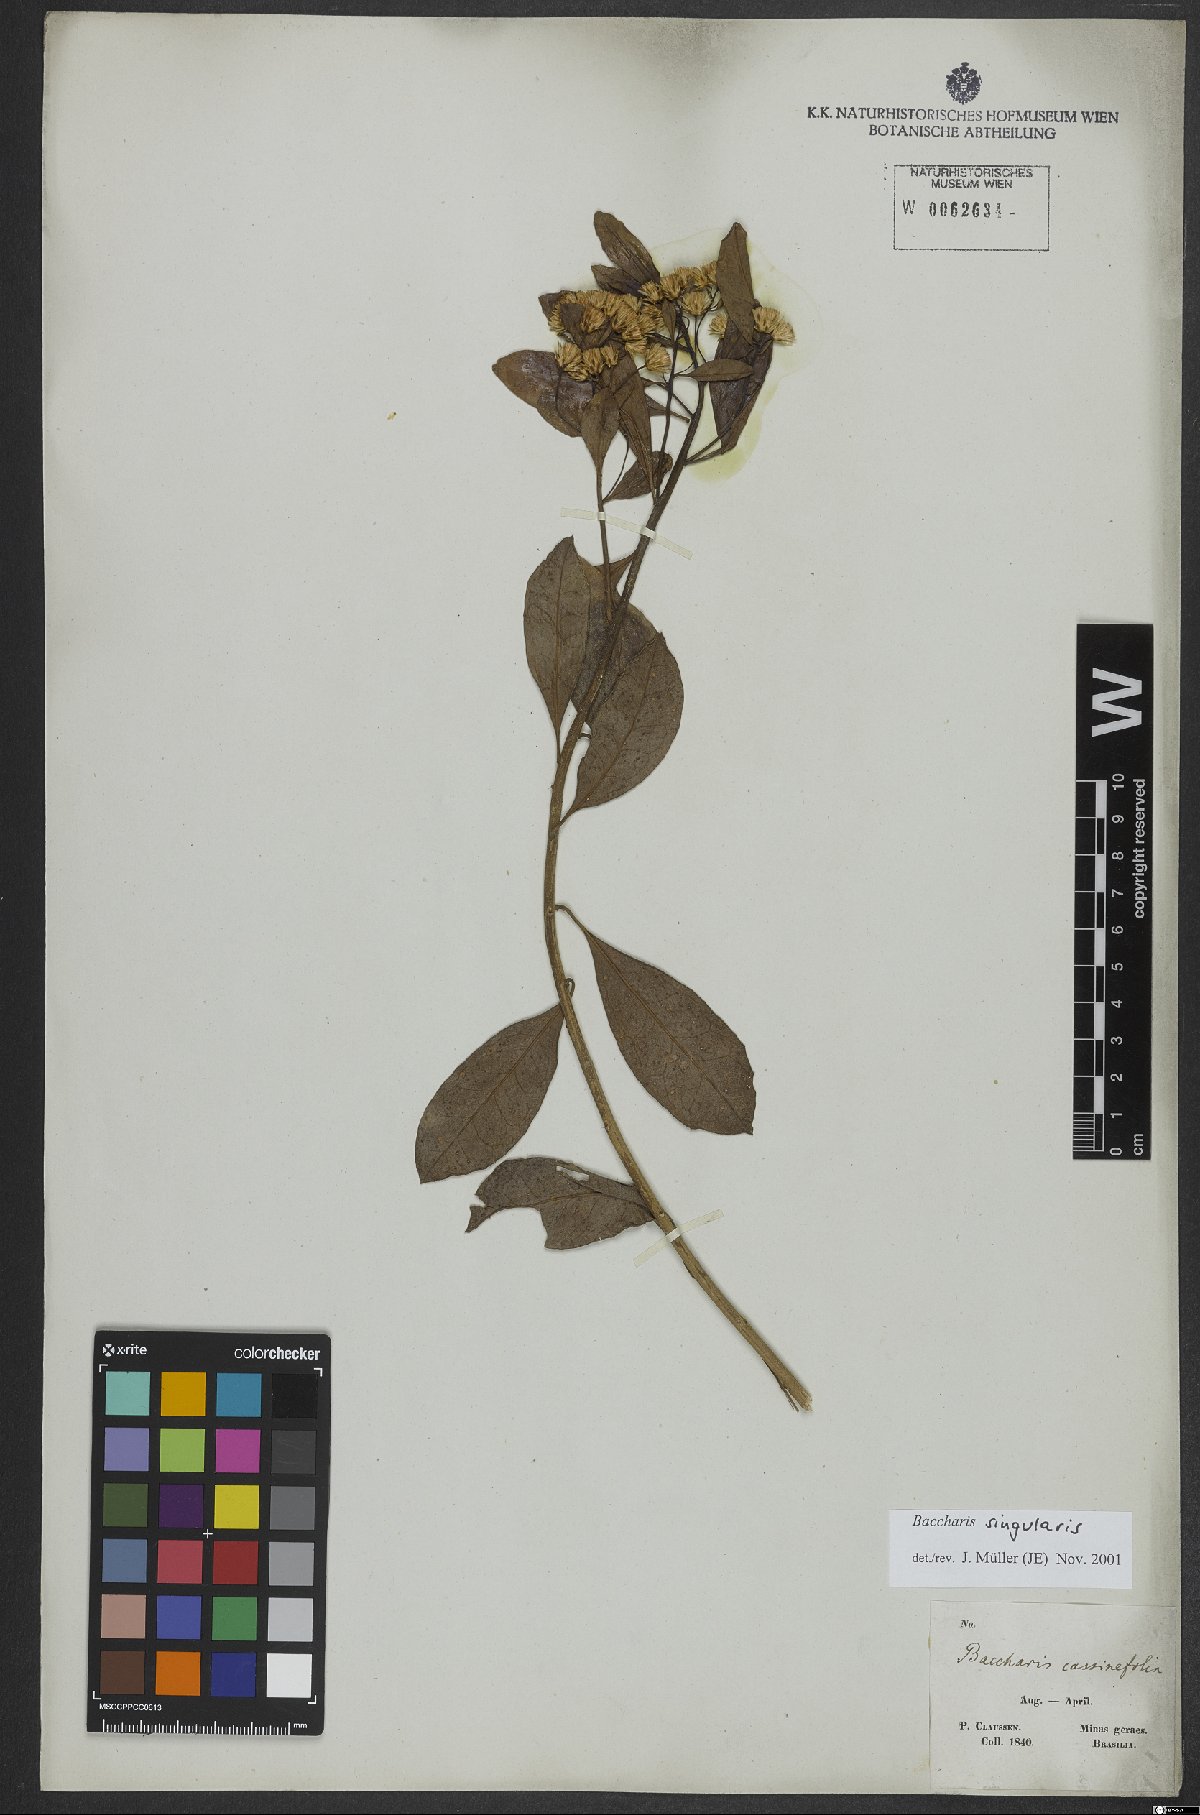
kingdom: Plantae
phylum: Tracheophyta
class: Magnoliopsida
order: Asterales
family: Asteraceae
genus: Baccharis
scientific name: Baccharis singularis
